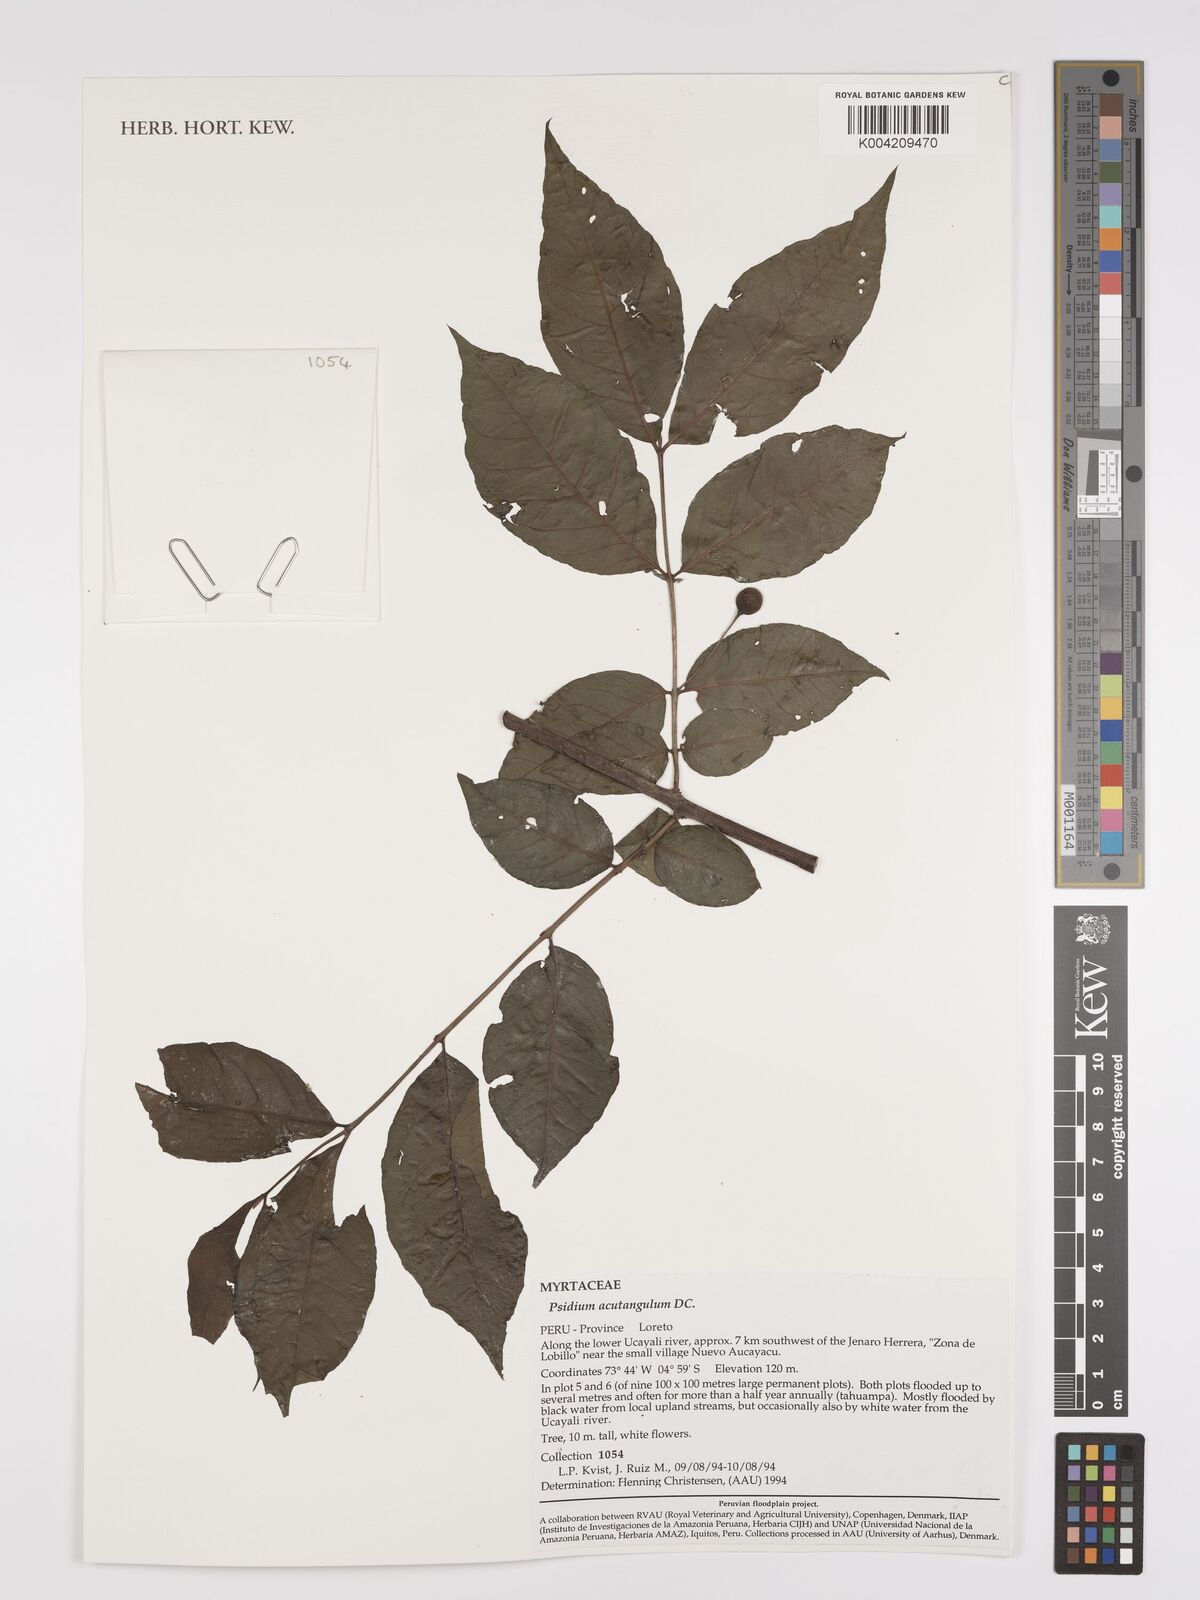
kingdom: Plantae
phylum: Tracheophyta
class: Magnoliopsida
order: Myrtales
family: Myrtaceae
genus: Psidium
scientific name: Psidium acutangulum
